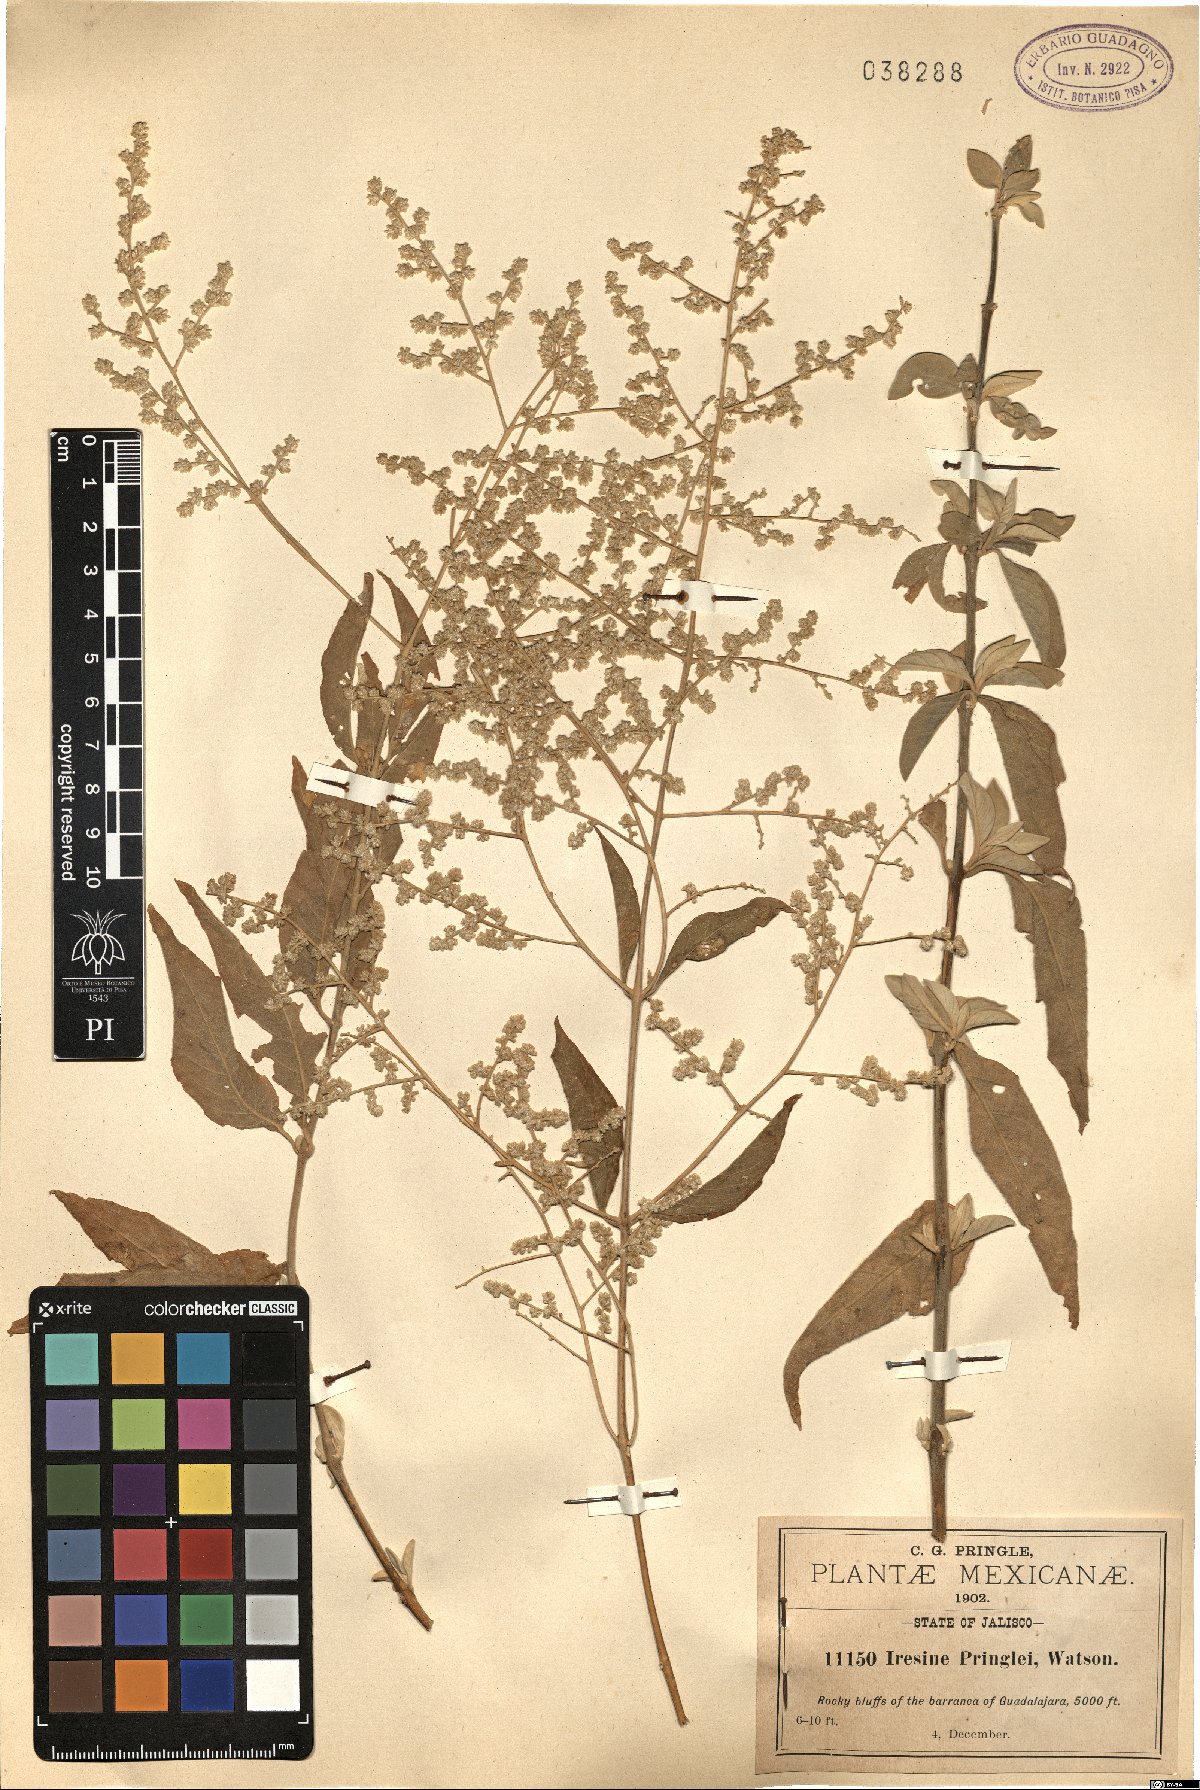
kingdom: Plantae
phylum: Tracheophyta
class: Magnoliopsida
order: Caryophyllales
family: Amaranthaceae
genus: Iresine
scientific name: Iresine pringlei
